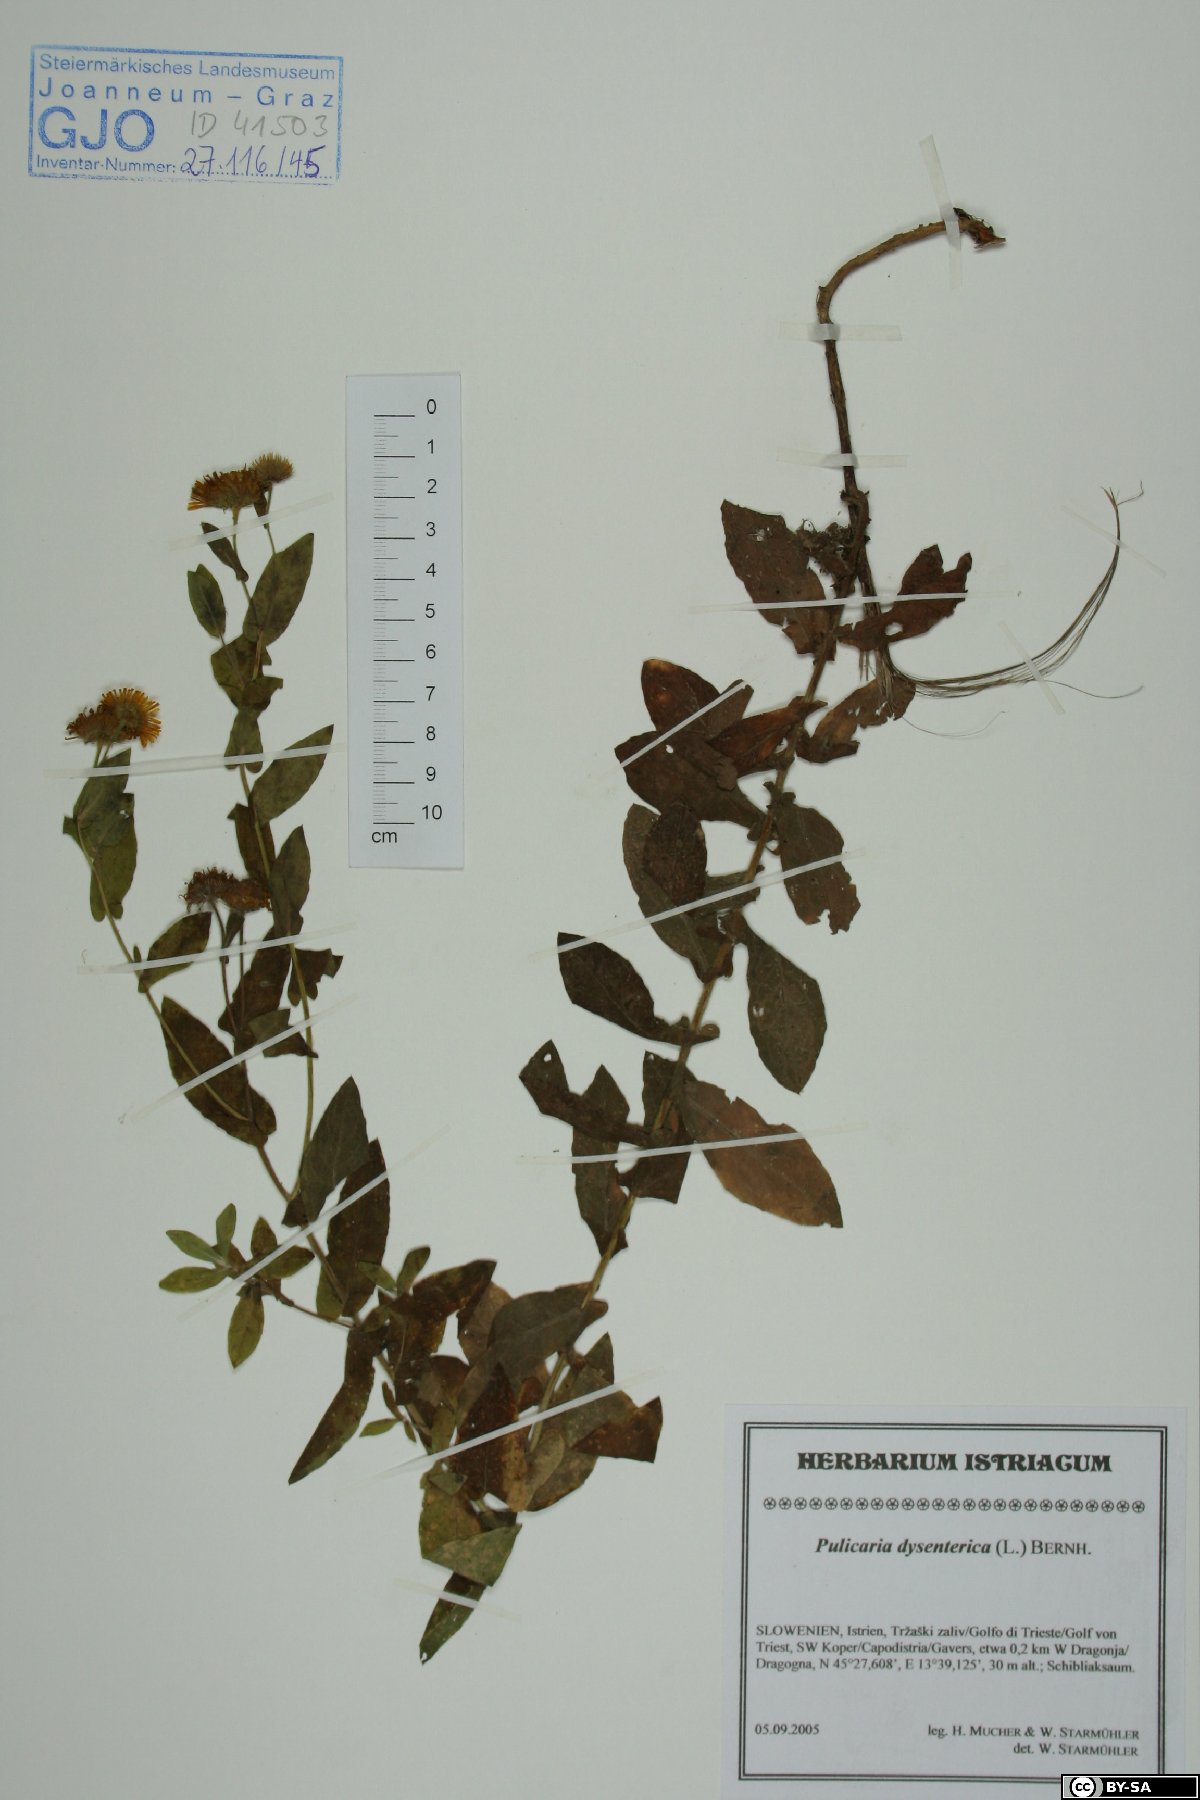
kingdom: Plantae
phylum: Tracheophyta
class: Magnoliopsida
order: Asterales
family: Asteraceae
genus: Pulicaria
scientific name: Pulicaria dysenterica
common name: Common fleabane
